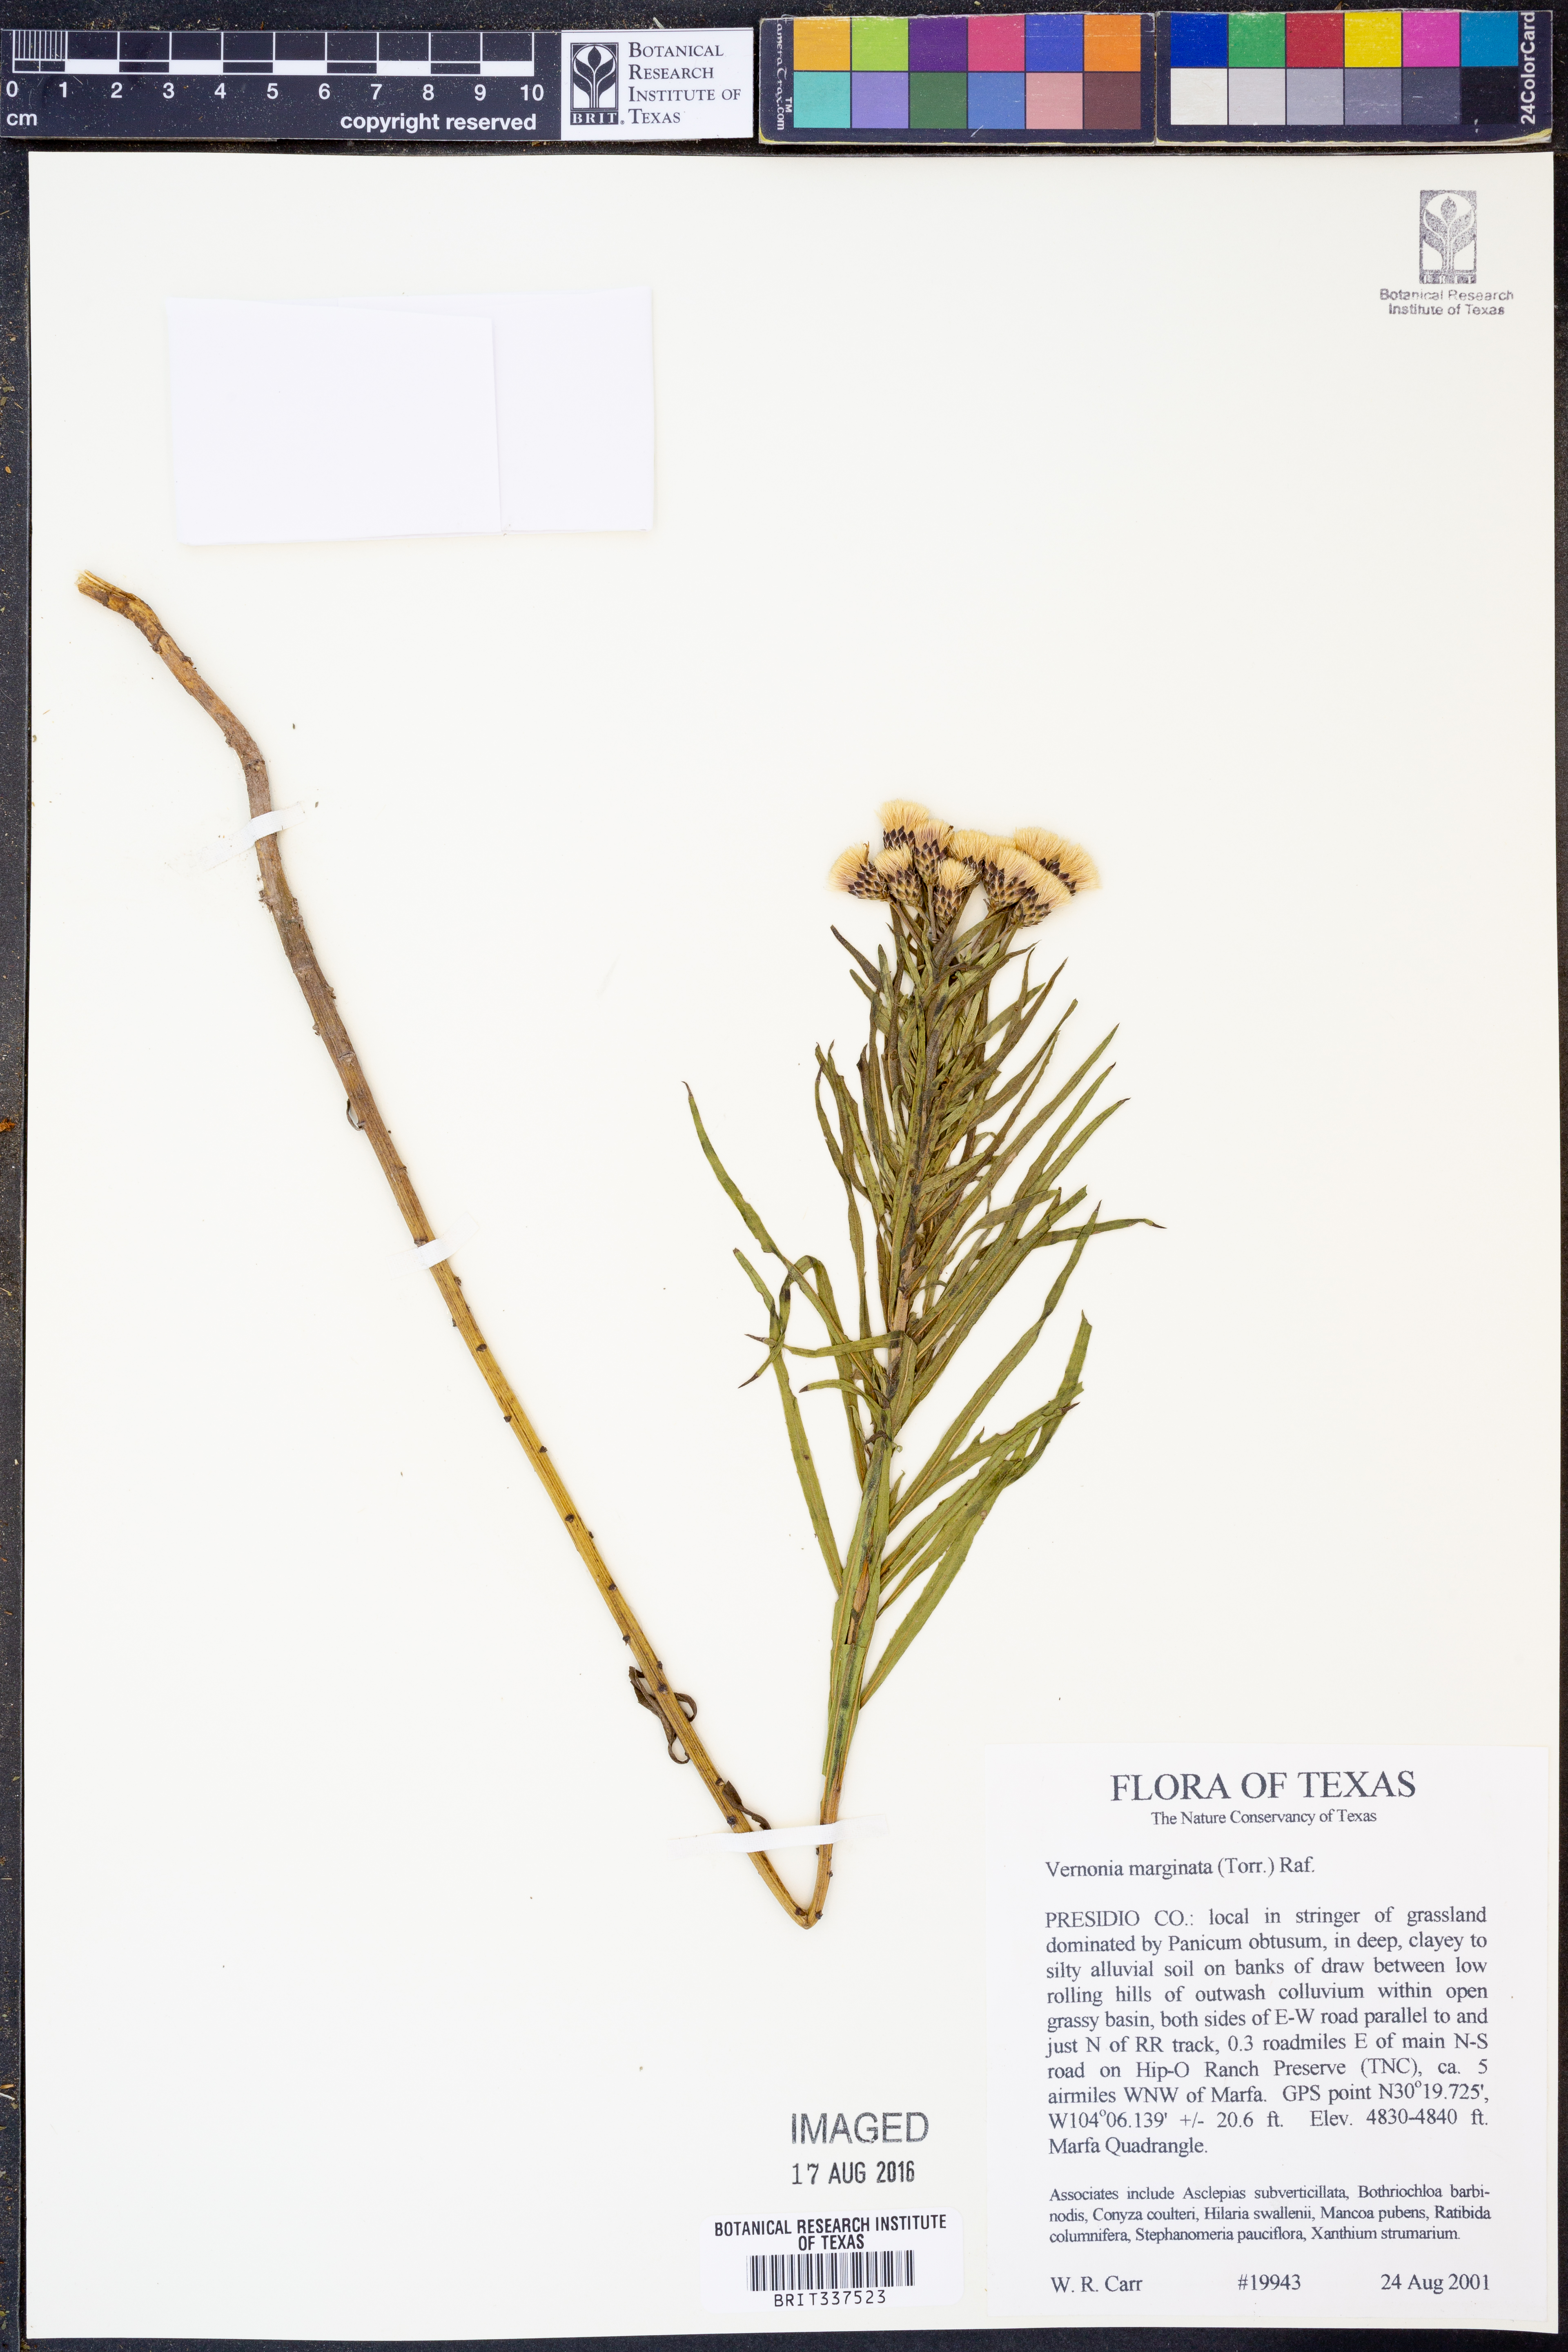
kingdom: Plantae
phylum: Tracheophyta
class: Magnoliopsida
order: Asterales
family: Asteraceae
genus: Vernonia
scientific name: Vernonia marginata
